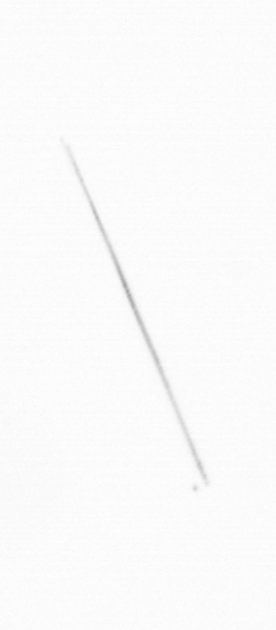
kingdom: Chromista
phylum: Ochrophyta
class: Bacillariophyceae
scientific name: Bacillariophyceae
